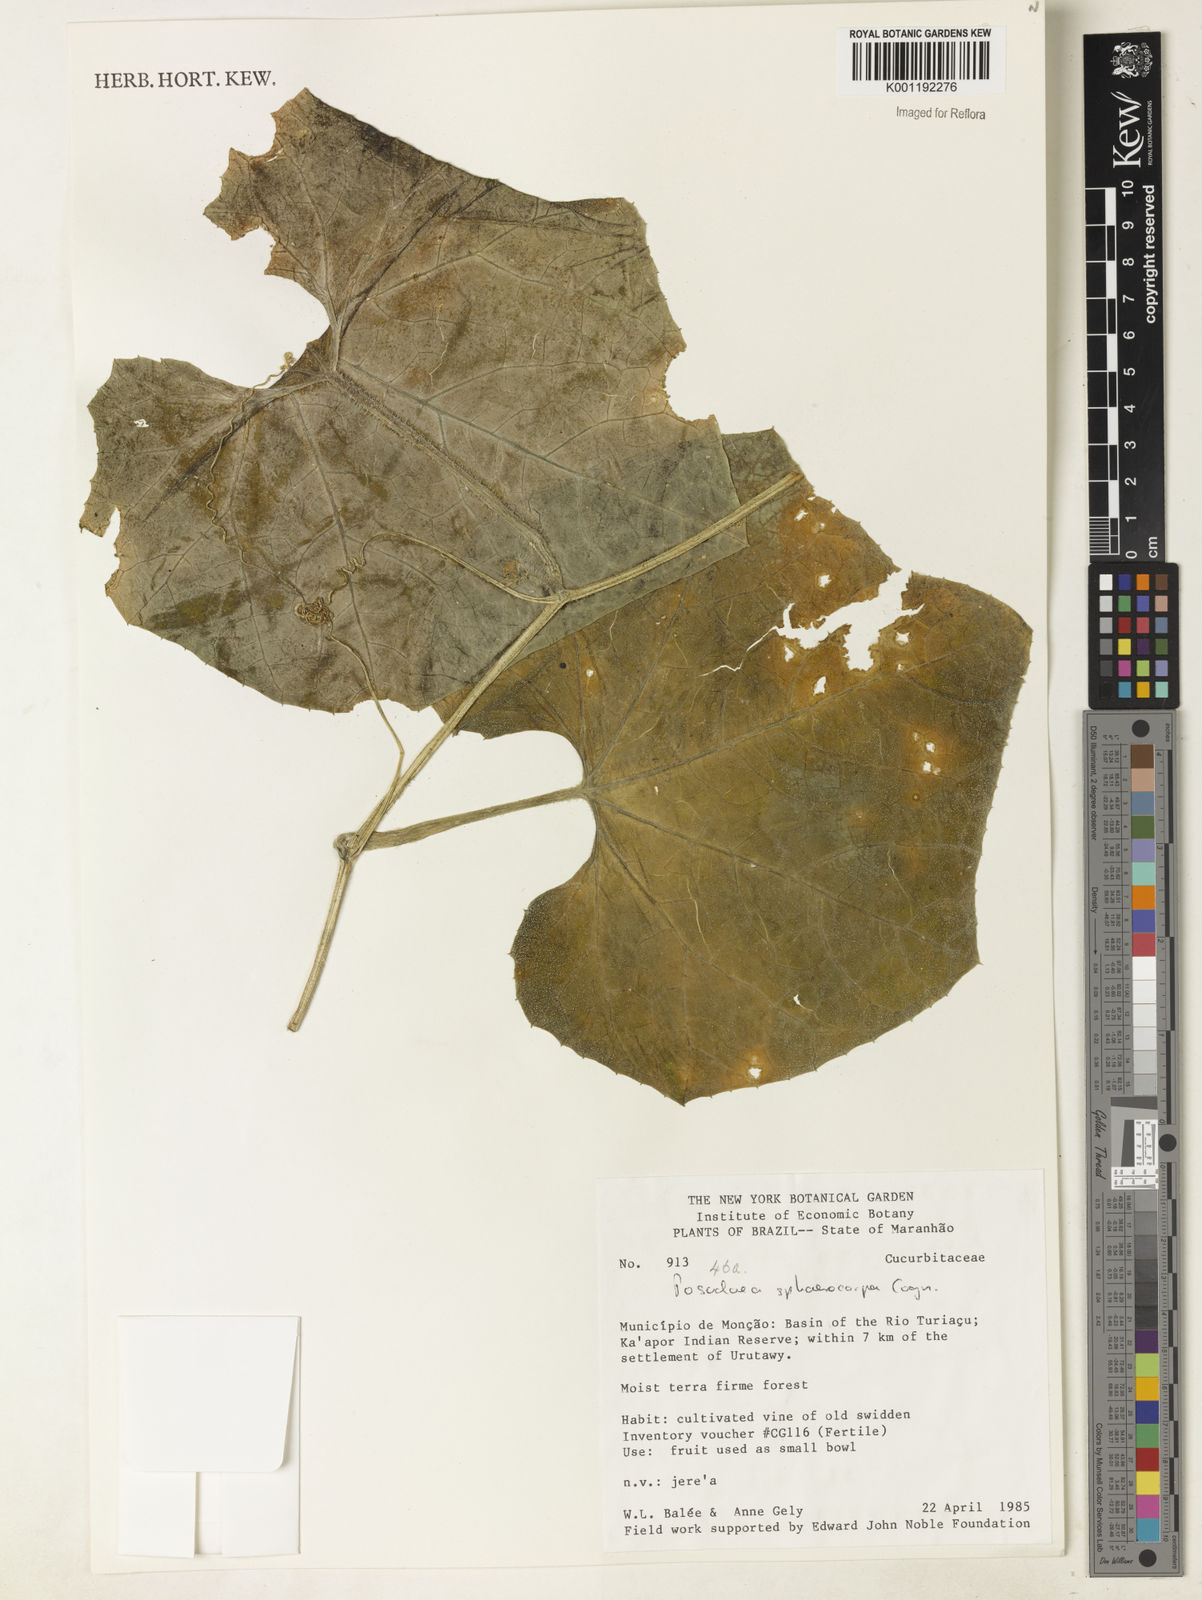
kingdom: Plantae
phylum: Tracheophyta
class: Magnoliopsida
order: Cucurbitales
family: Cucurbitaceae
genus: Melothria
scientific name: Melothria sphaerocarpa
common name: Egusi-itoo
